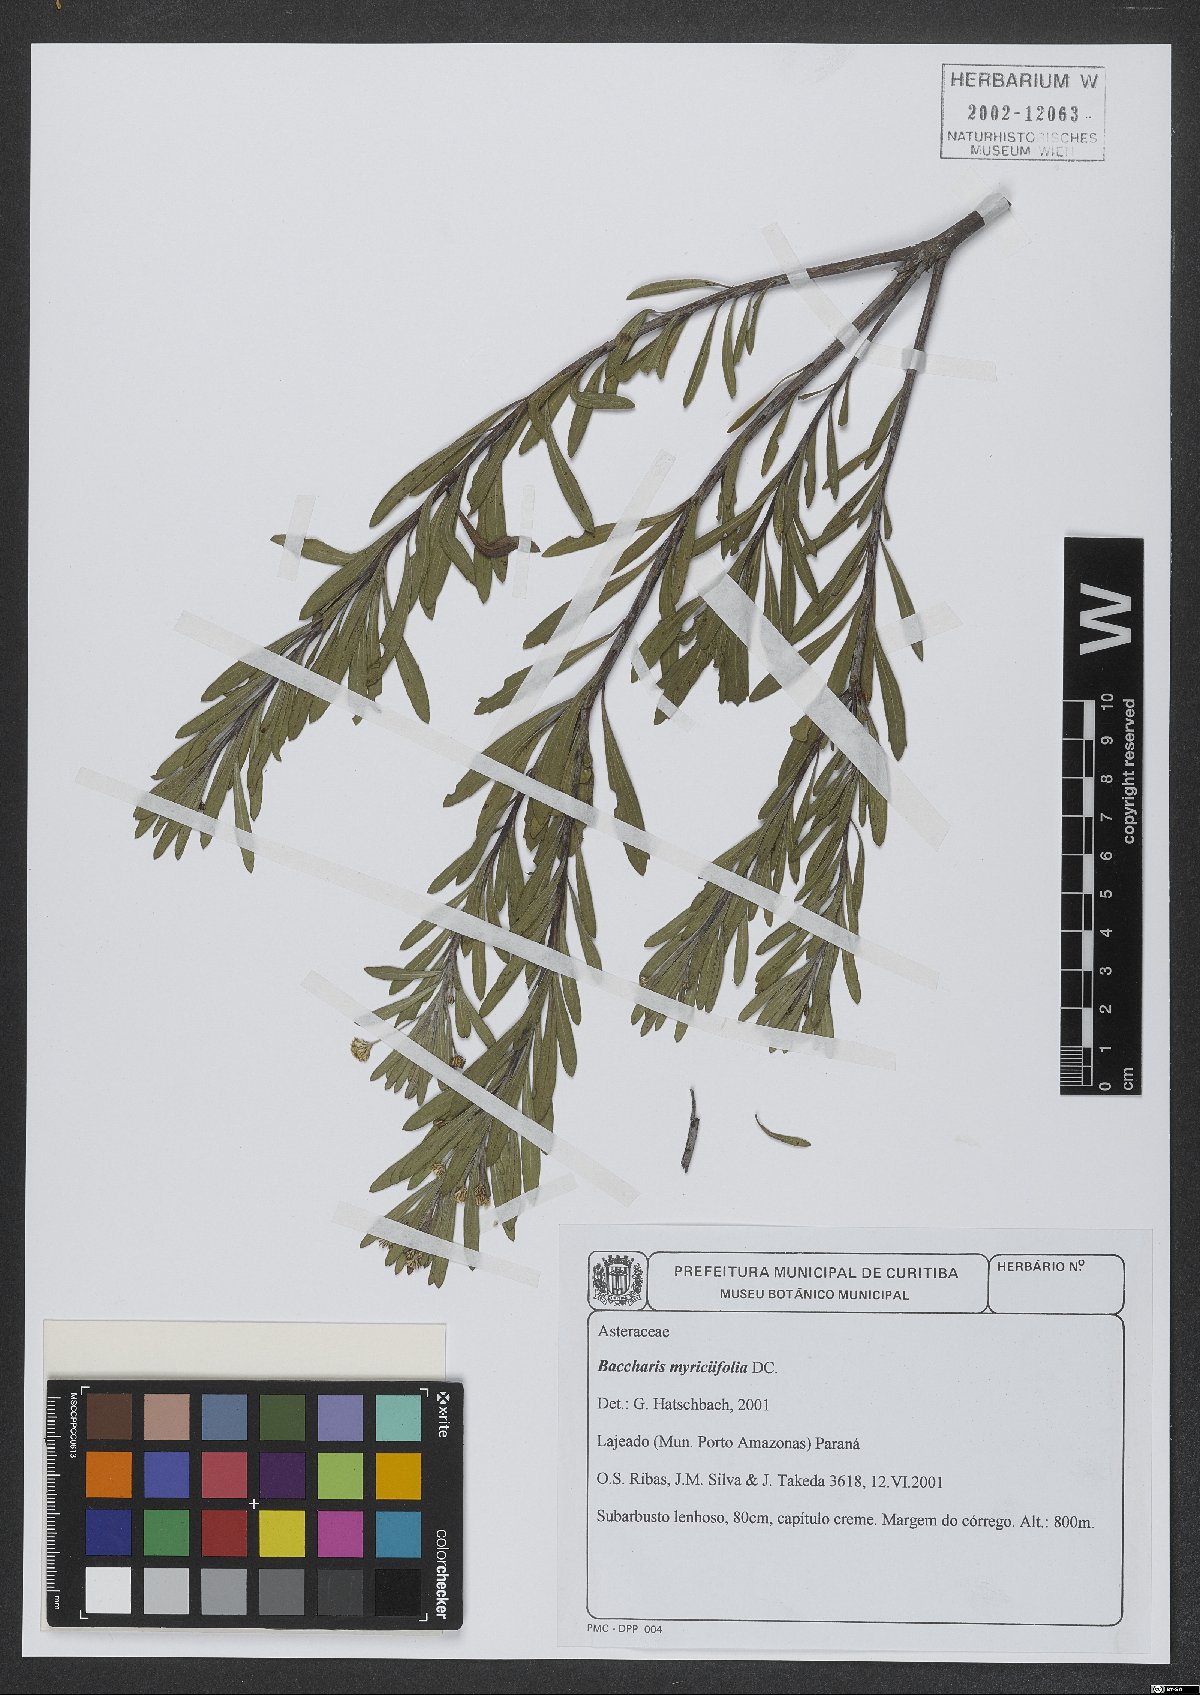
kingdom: Plantae
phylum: Tracheophyta
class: Magnoliopsida
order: Asterales
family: Asteraceae
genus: Baccharis
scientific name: Baccharis myricifolia
